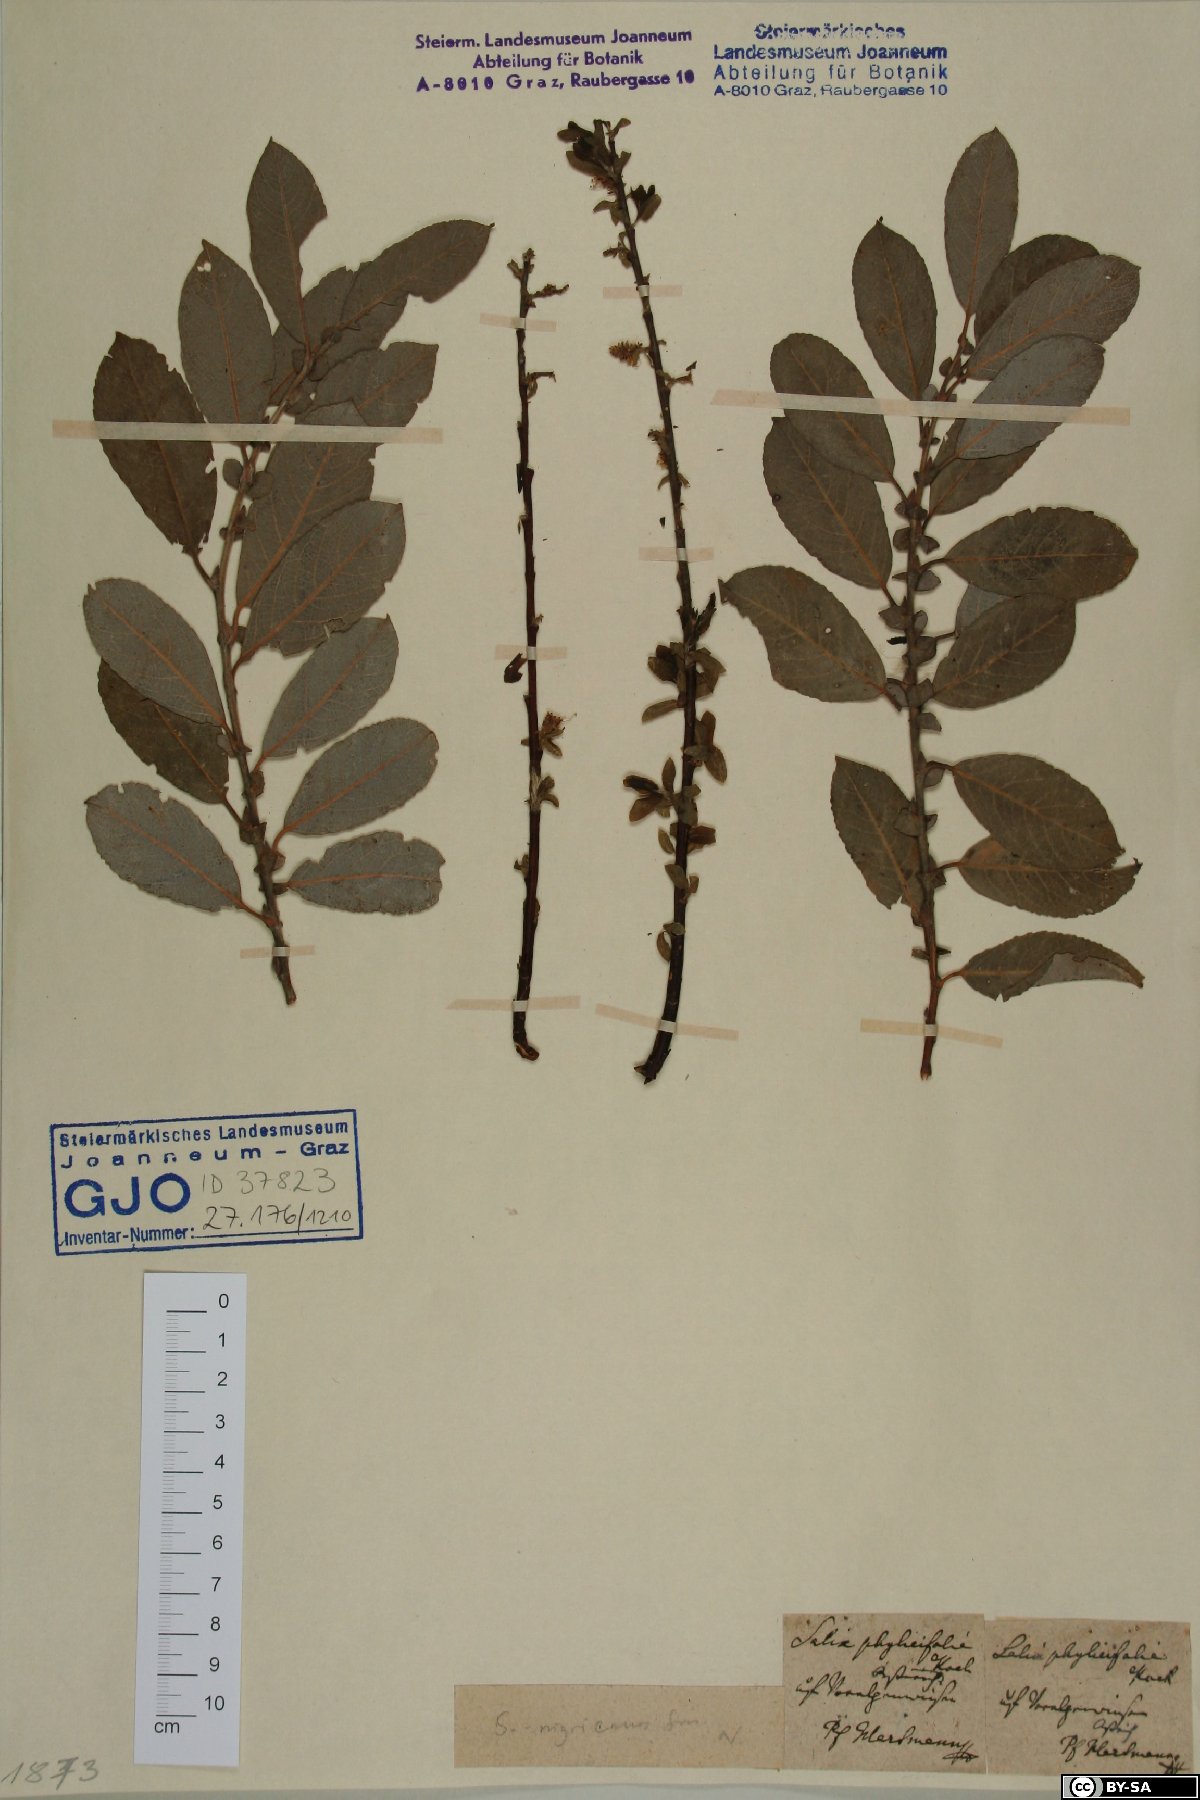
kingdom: Plantae
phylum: Tracheophyta
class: Magnoliopsida
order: Malpighiales
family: Salicaceae
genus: Salix
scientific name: Salix myrsinifolia
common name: Dark-leaved willow
